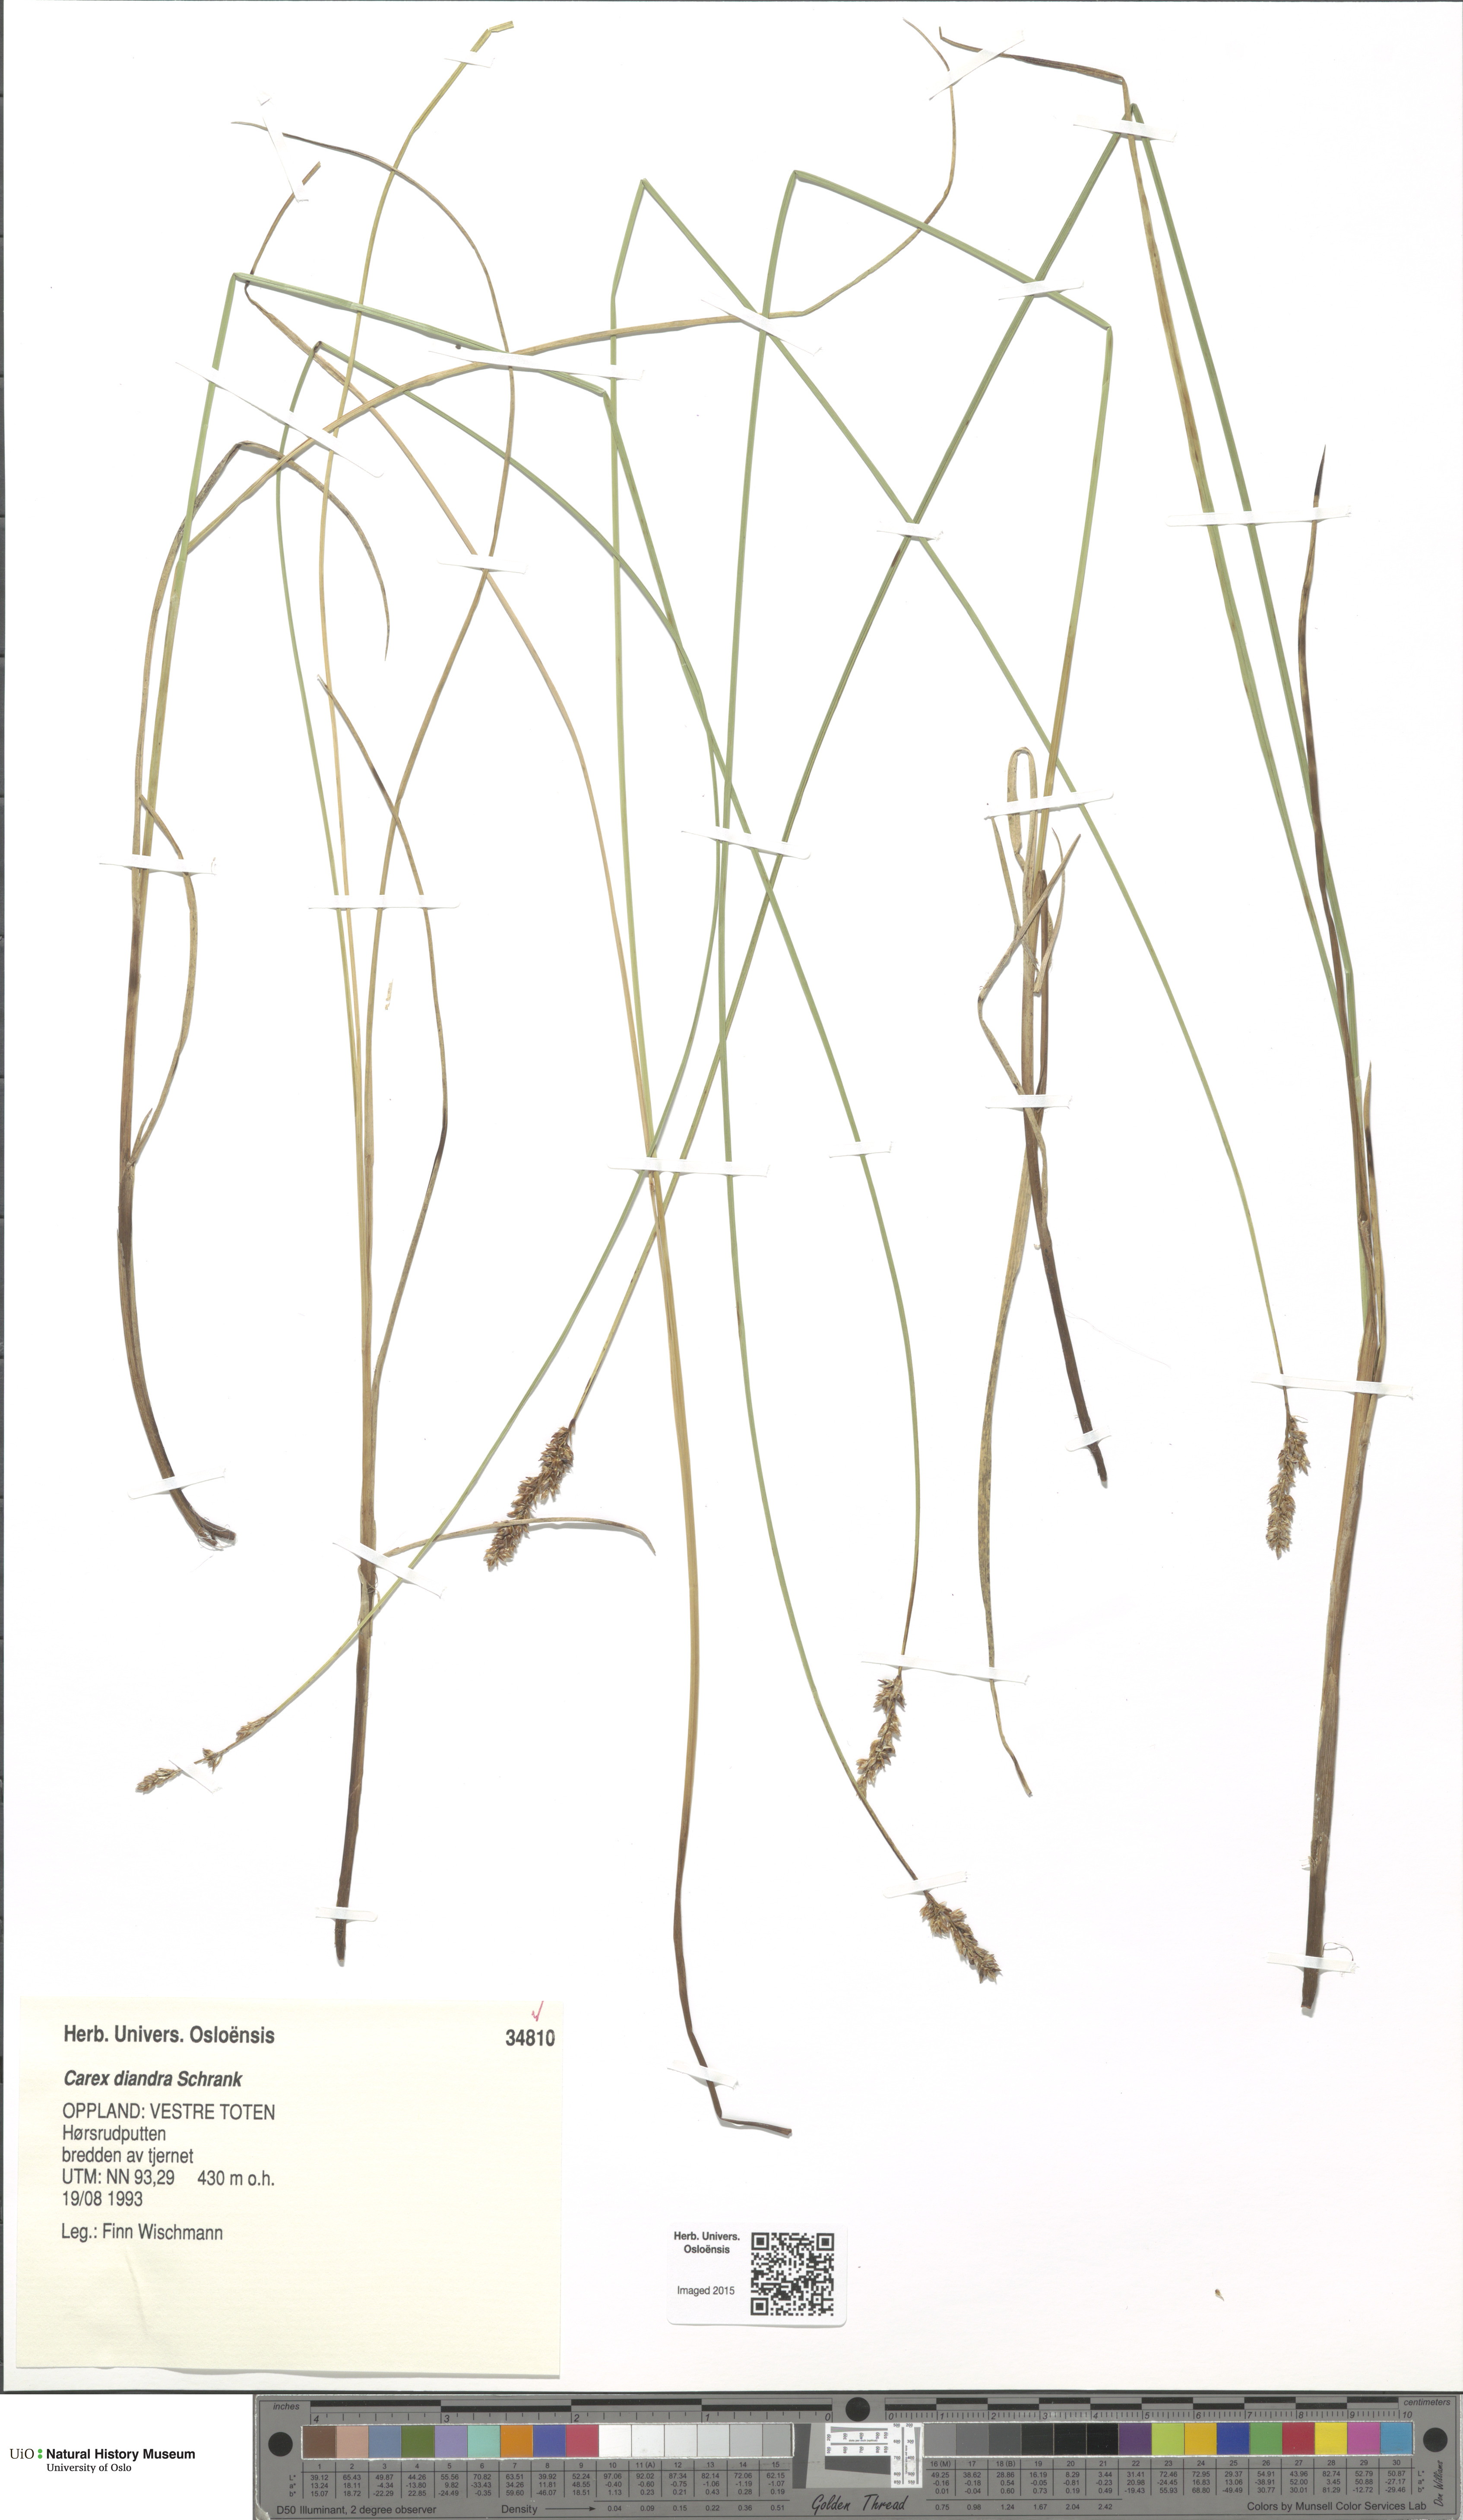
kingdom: Plantae
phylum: Tracheophyta
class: Liliopsida
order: Poales
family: Cyperaceae
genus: Carex
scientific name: Carex diandra
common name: Lesser tussock-sedge
